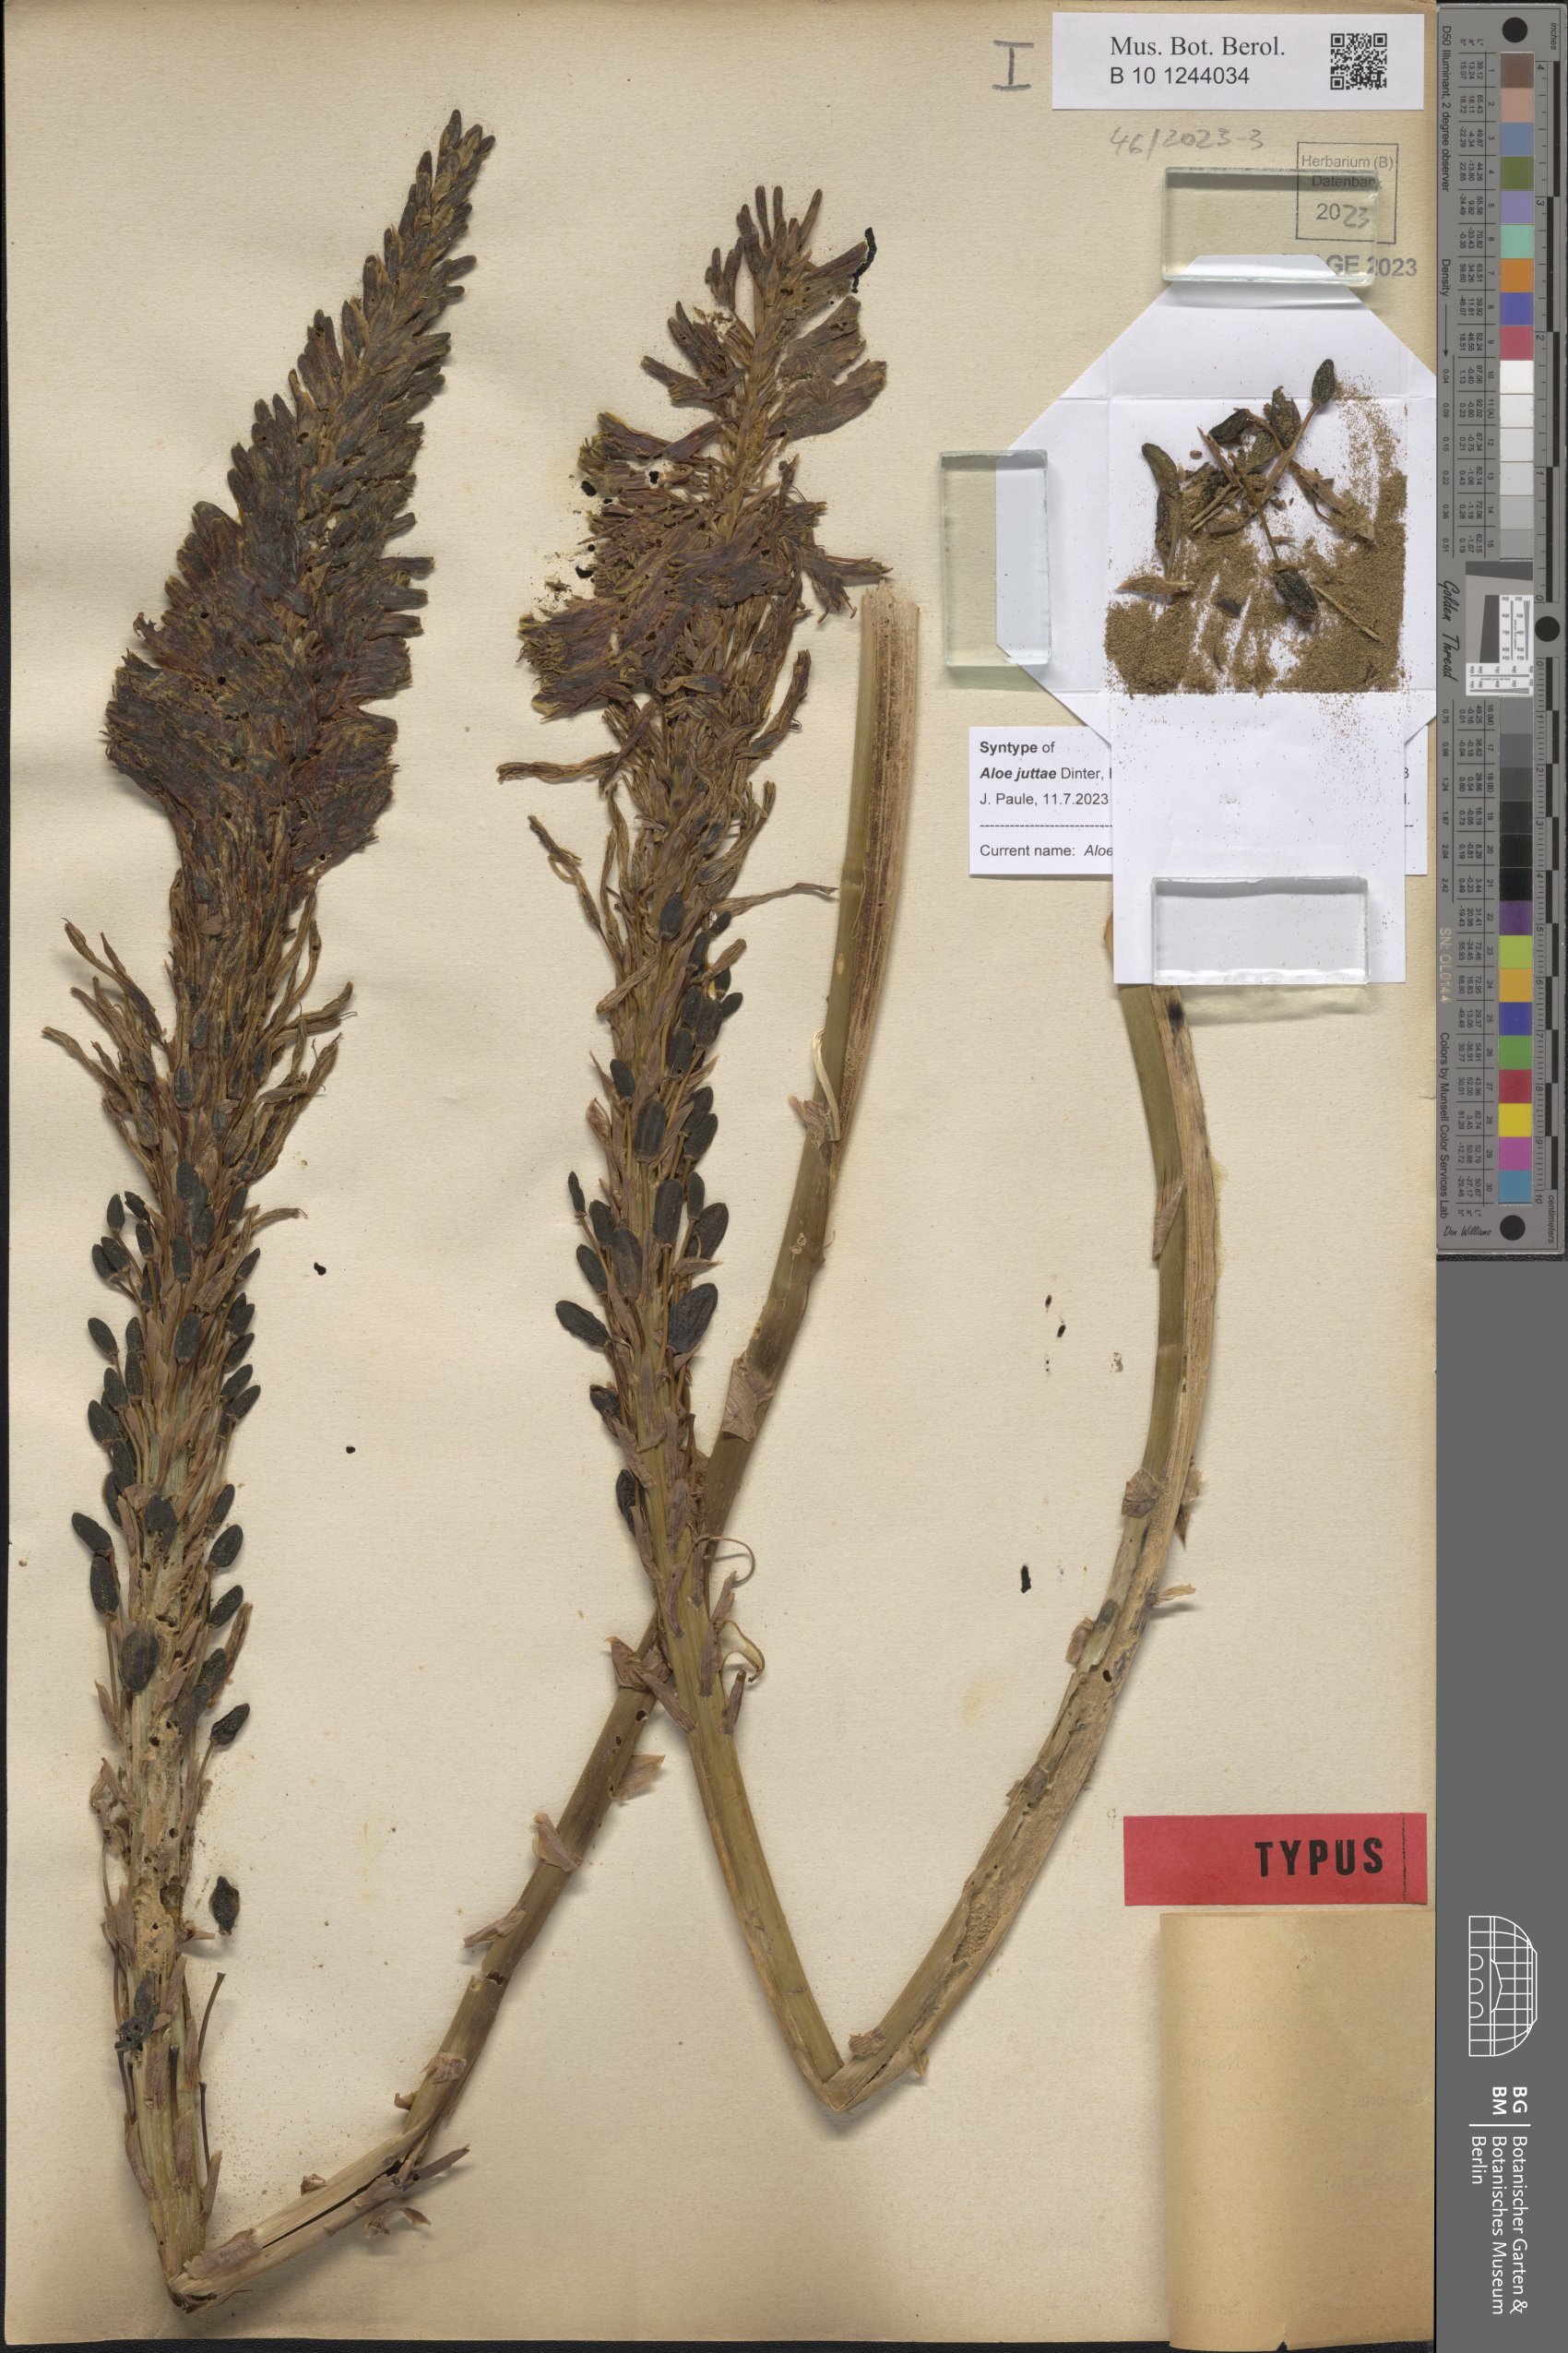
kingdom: Plantae
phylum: Tracheophyta
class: Liliopsida
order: Asparagales
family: Asphodelaceae
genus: Aloe
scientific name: Aloe microstigma
